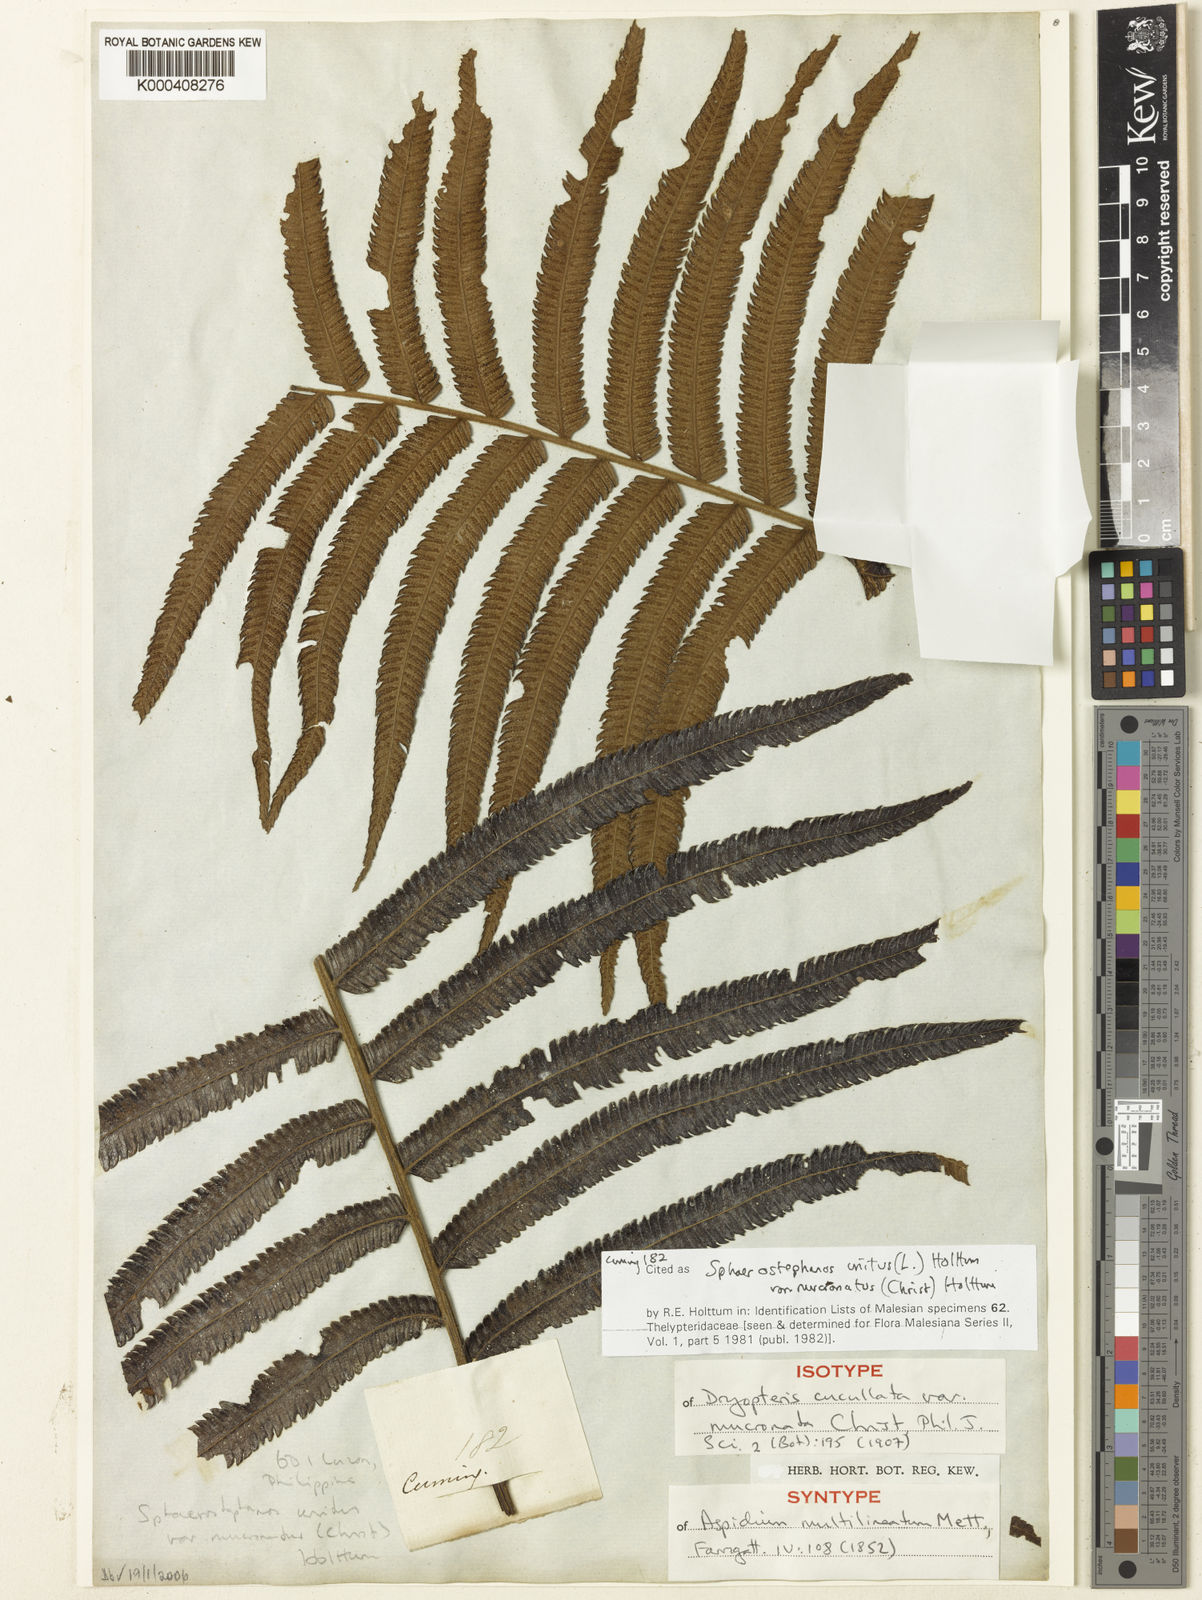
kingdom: Plantae
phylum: Tracheophyta
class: Polypodiopsida
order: Polypodiales
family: Thelypteridaceae
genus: Strophocaulon
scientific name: Strophocaulon unitum
